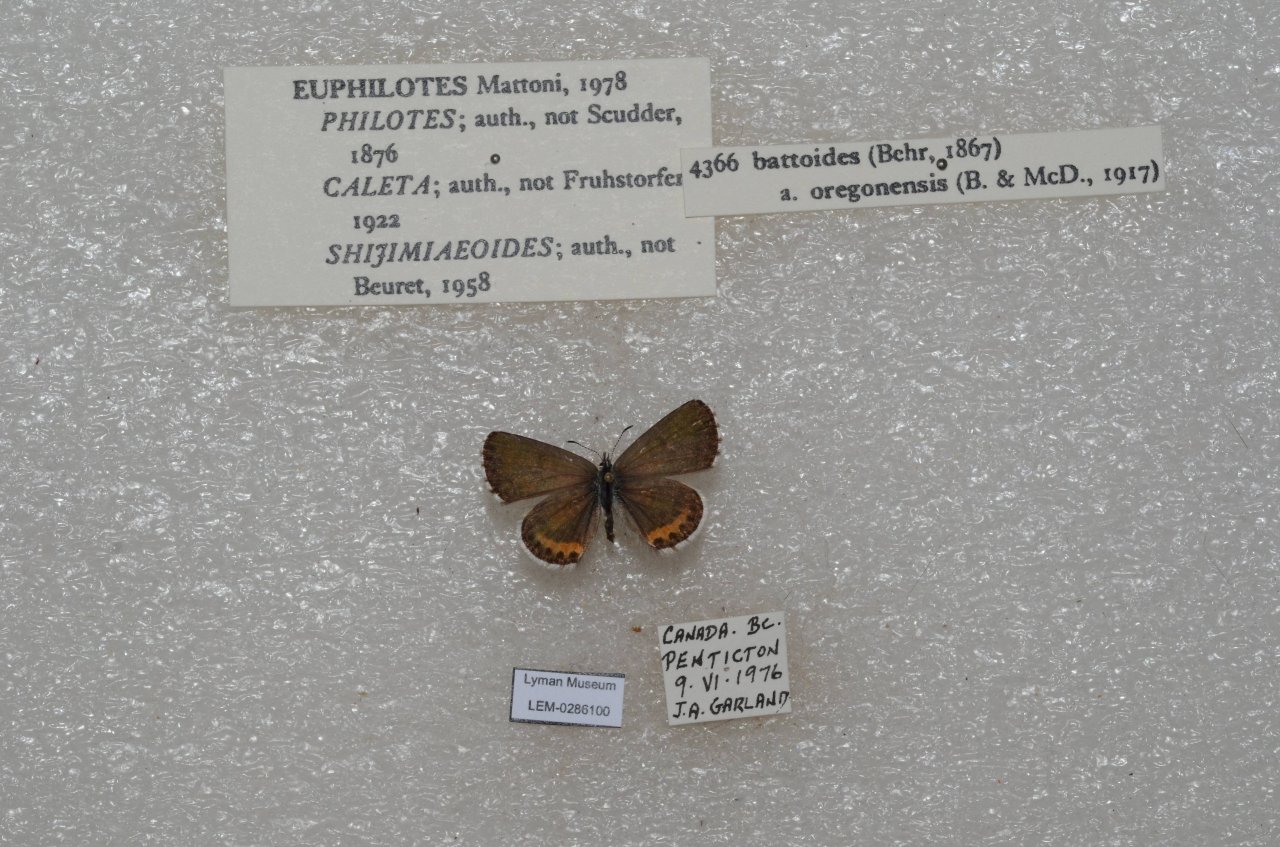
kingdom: Animalia
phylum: Arthropoda
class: Insecta
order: Lepidoptera
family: Lycaenidae
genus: Euphilotes
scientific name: Euphilotes battoides
